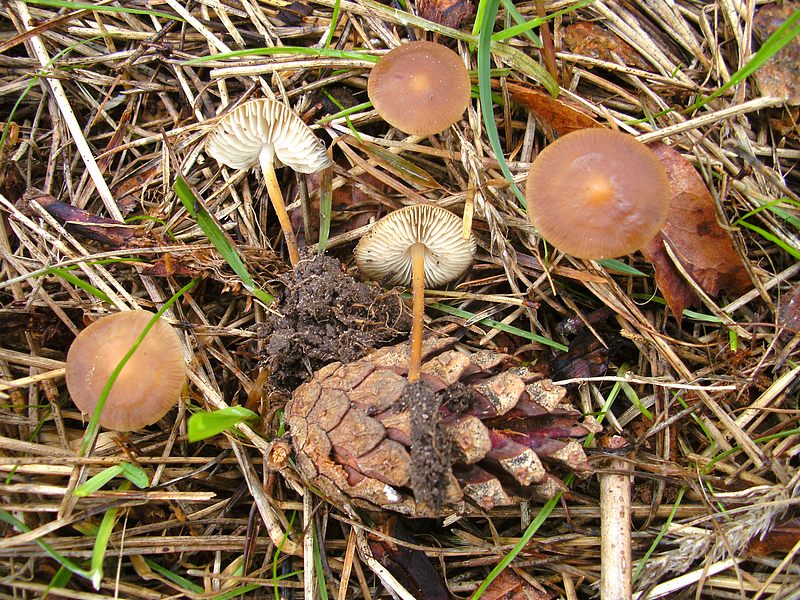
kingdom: Fungi
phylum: Basidiomycota
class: Agaricomycetes
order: Agaricales
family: Physalacriaceae
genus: Strobilurus
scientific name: Strobilurus stephanocystis
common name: fyrre-koglehat
